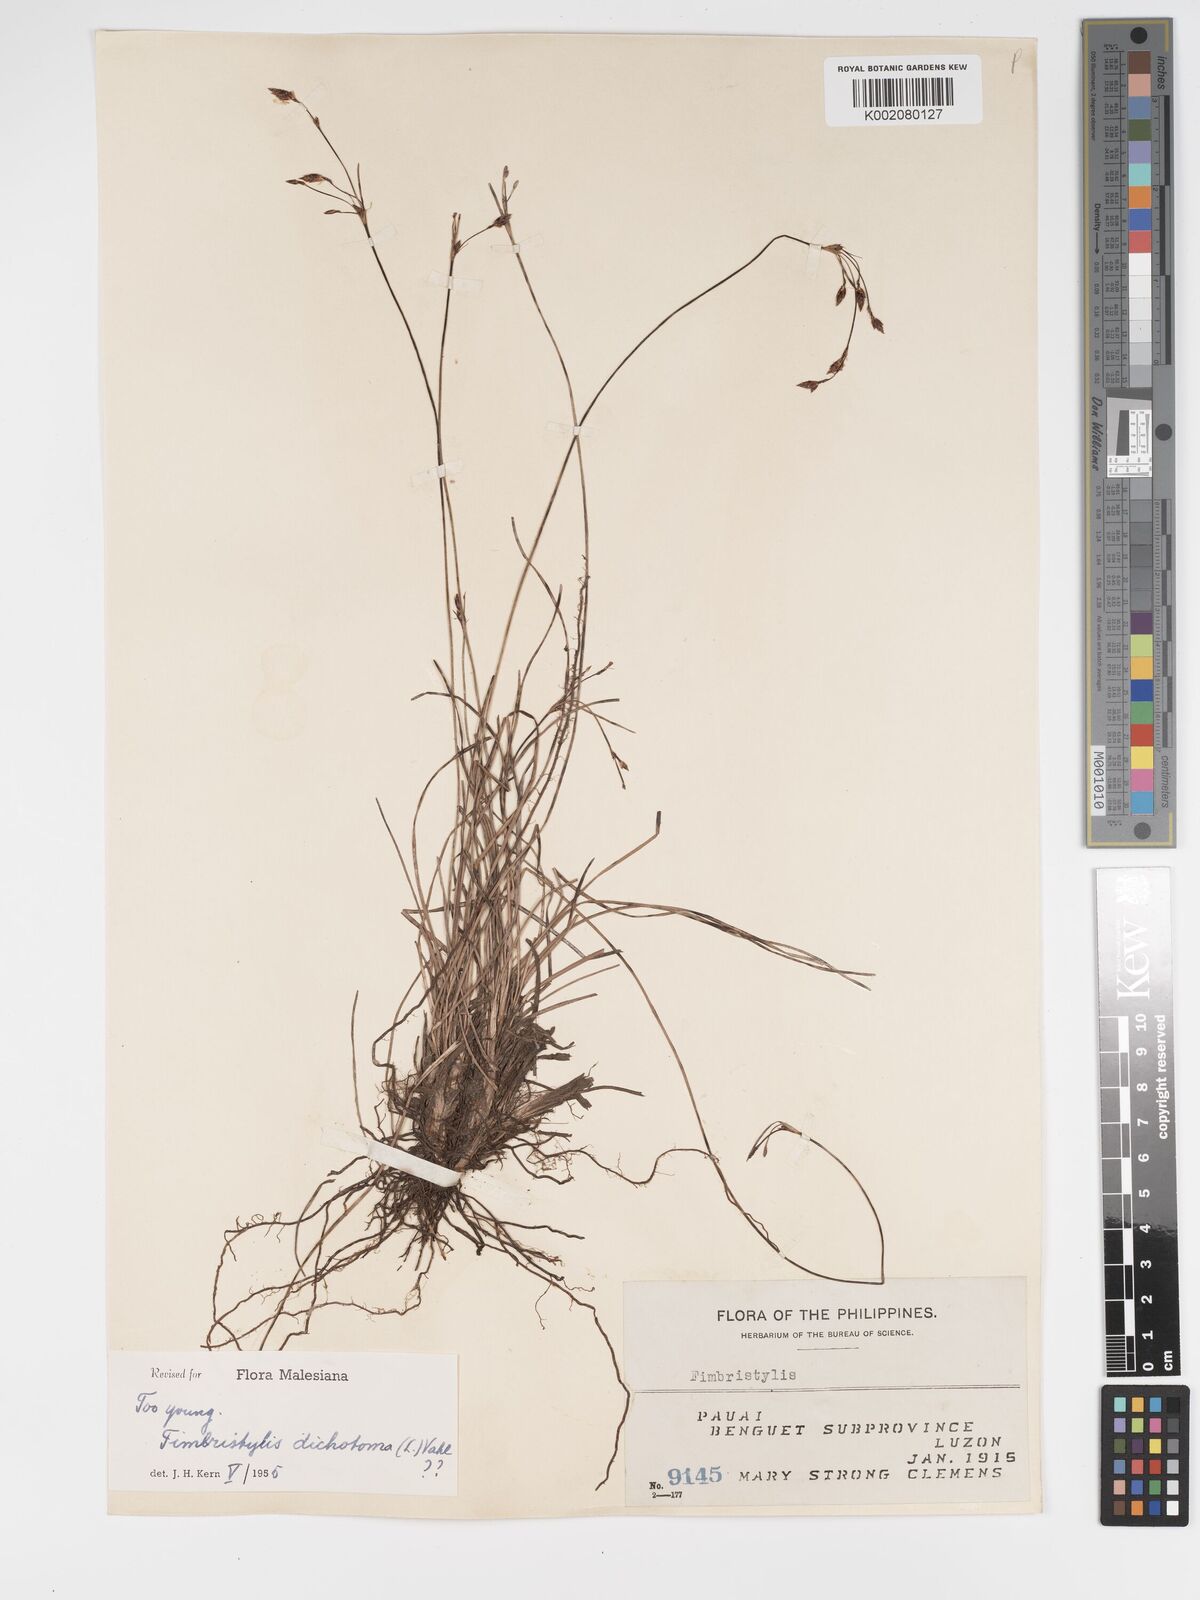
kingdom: Plantae
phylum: Tracheophyta
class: Liliopsida
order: Poales
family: Cyperaceae
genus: Fimbristylis
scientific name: Fimbristylis dichotoma
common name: Forked fimbry
